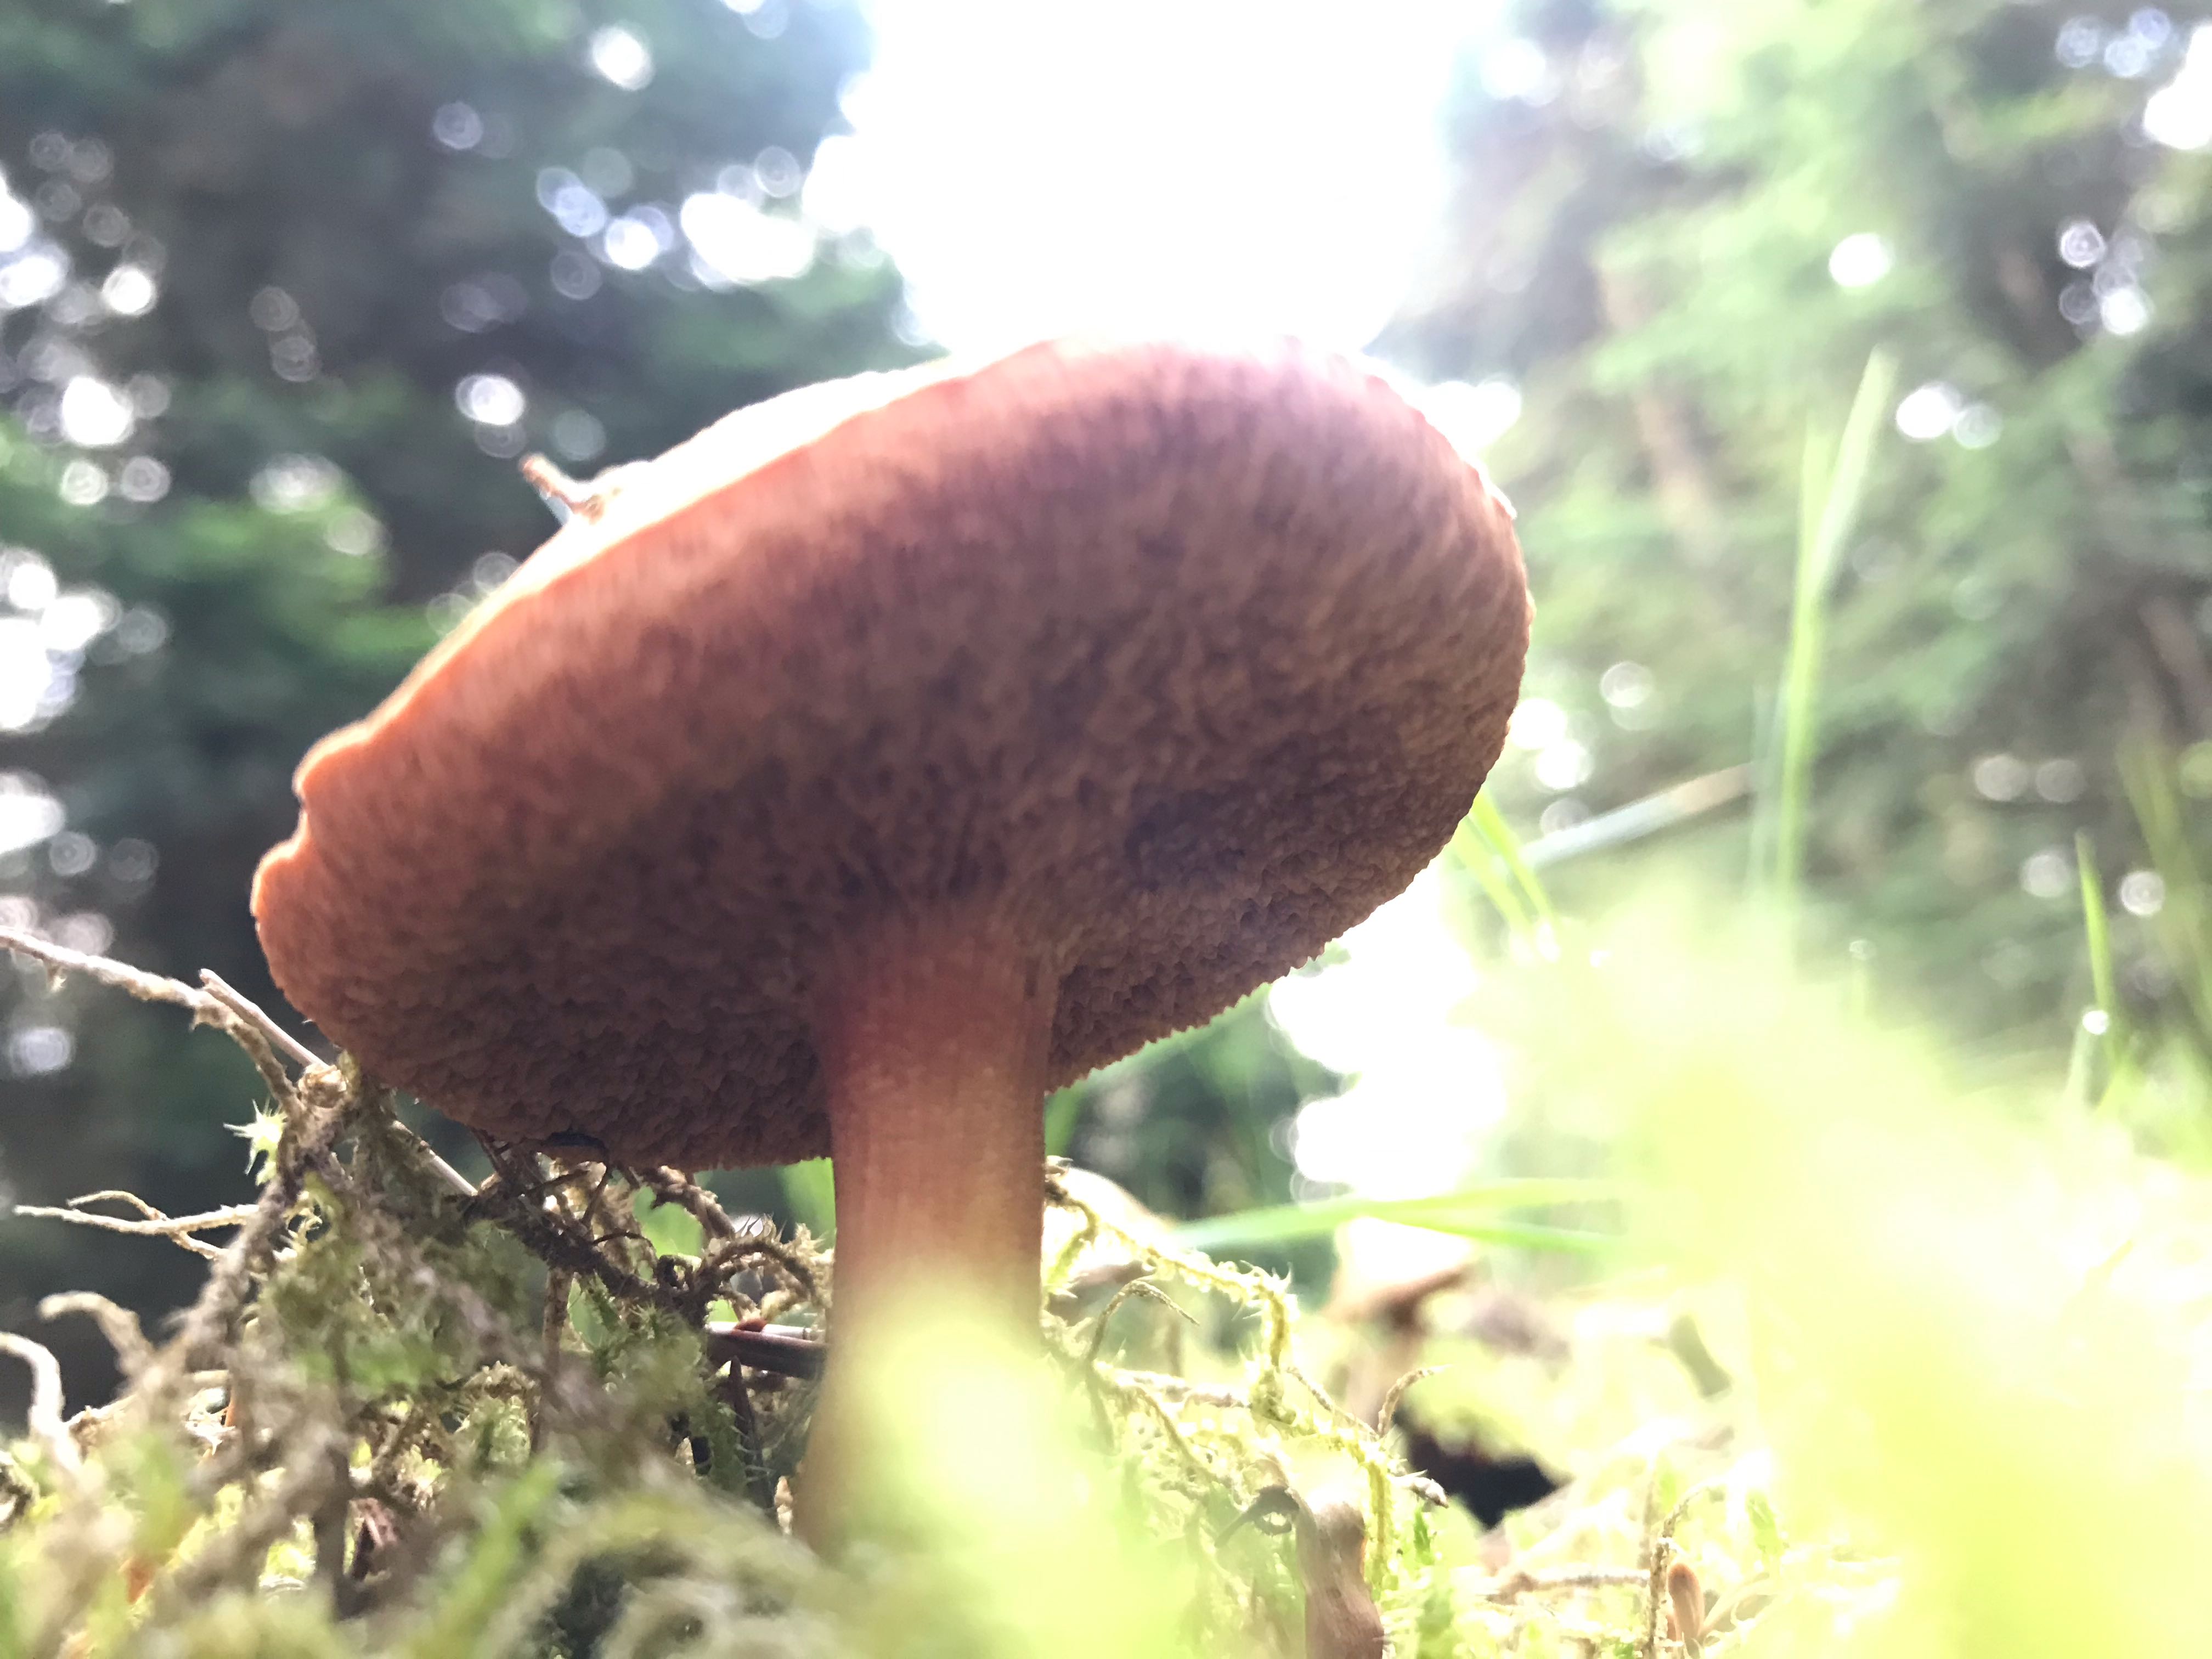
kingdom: Fungi
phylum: Basidiomycota
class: Agaricomycetes
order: Boletales
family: Boletaceae
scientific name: Boletaceae
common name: rørhatfamilien
